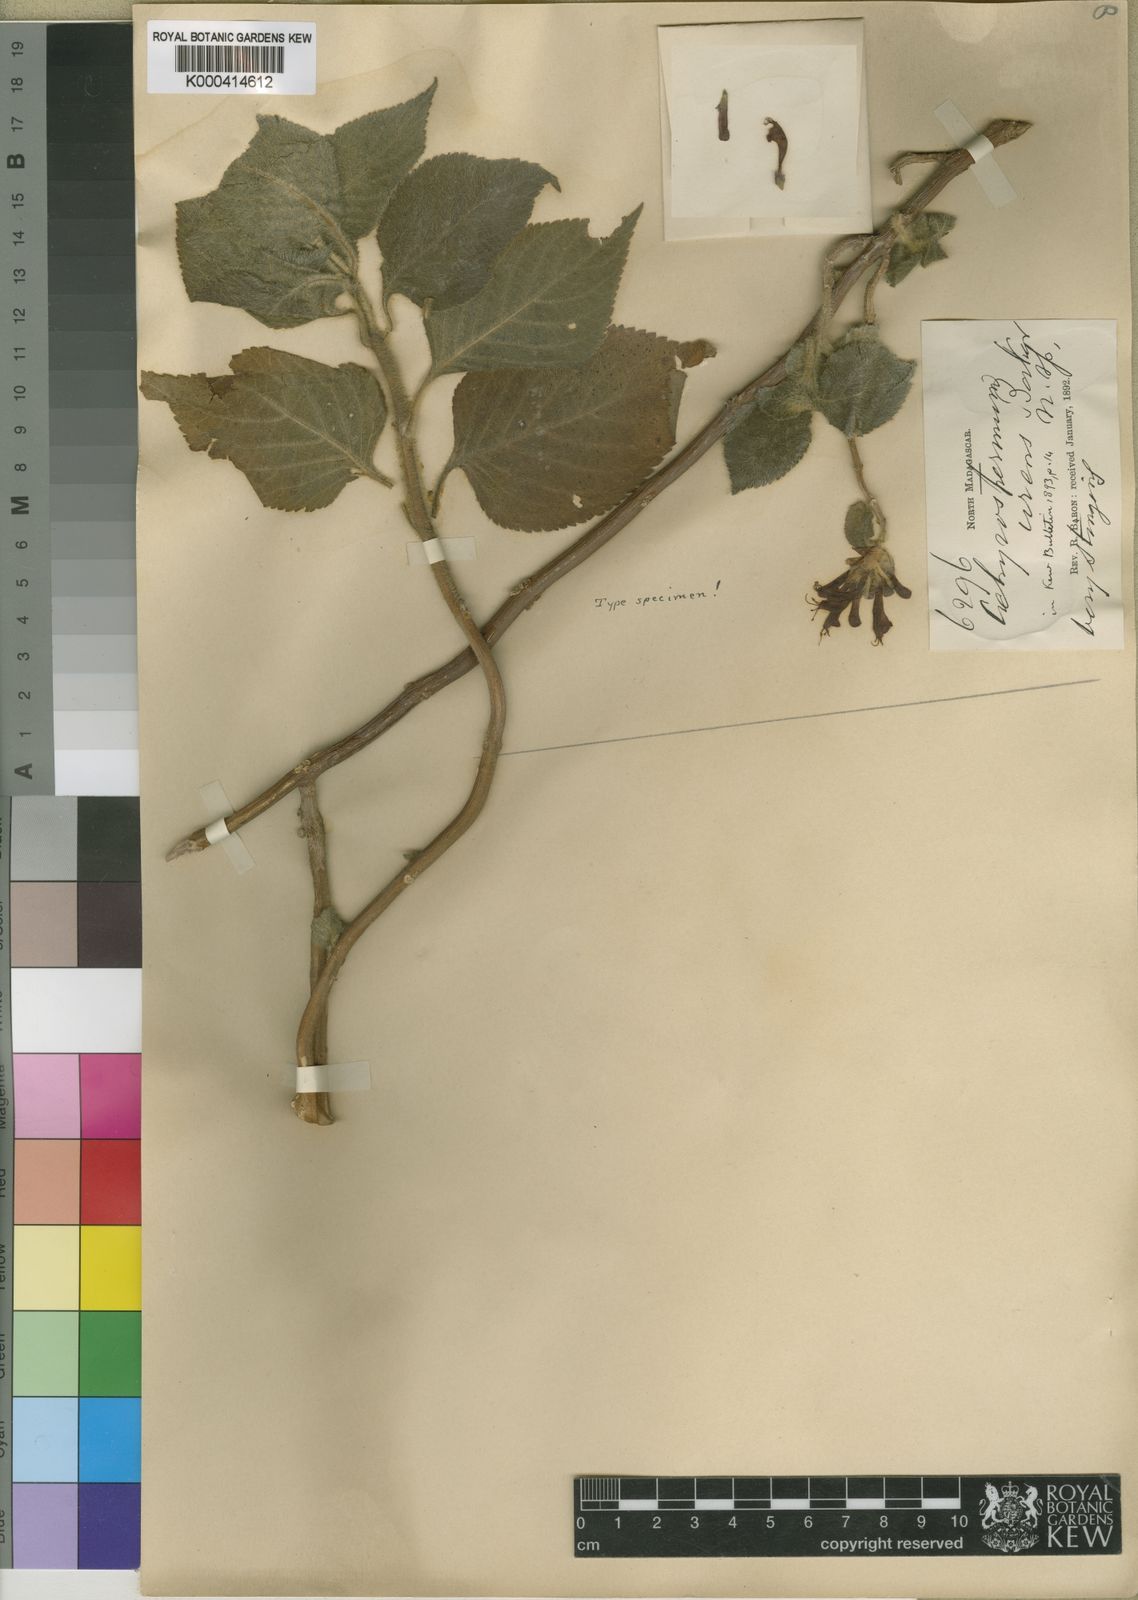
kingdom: Plantae
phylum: Tracheophyta
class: Magnoliopsida
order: Lamiales
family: Lamiaceae
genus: Achyrospermum
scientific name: Achyrospermum urens
